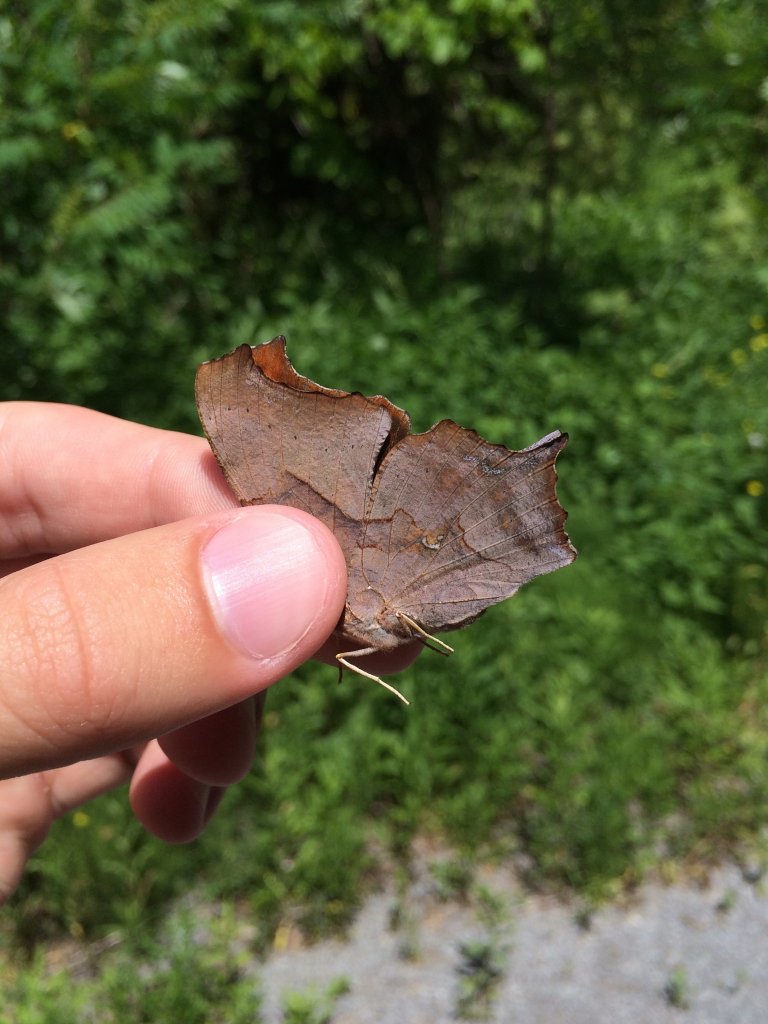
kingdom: Animalia
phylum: Arthropoda
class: Insecta
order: Lepidoptera
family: Nymphalidae
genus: Polygonia
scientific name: Polygonia interrogationis
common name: Question Mark
